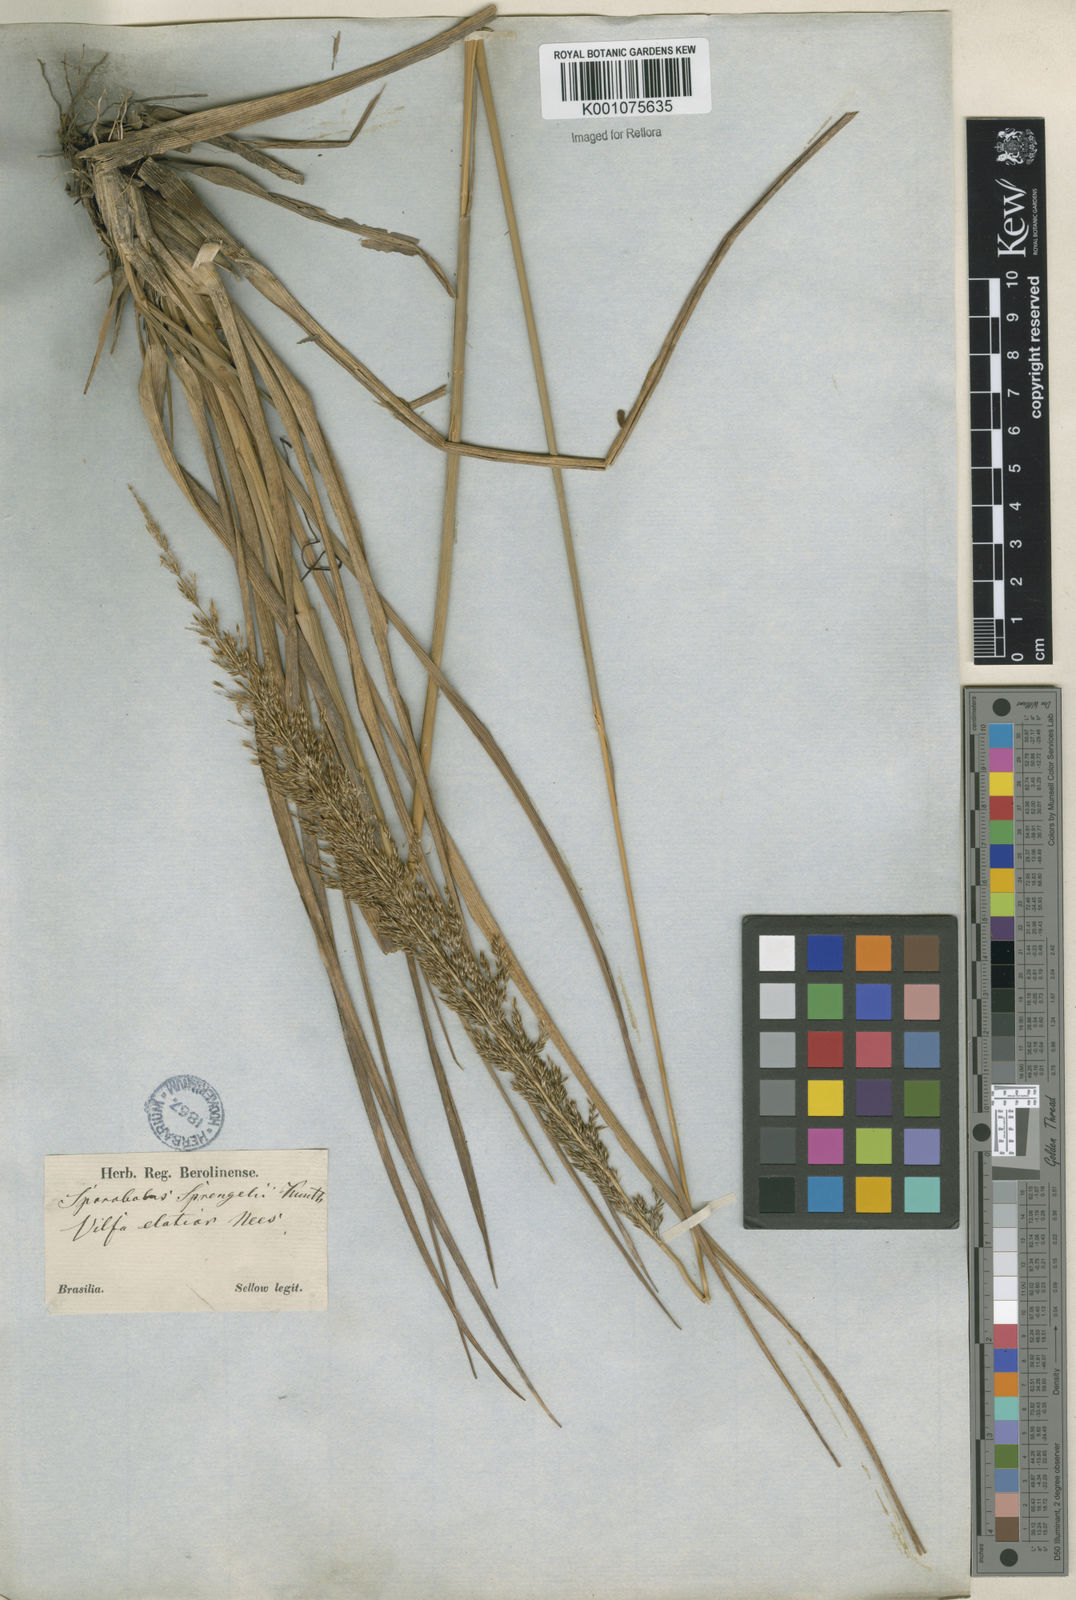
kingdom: Plantae
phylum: Tracheophyta
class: Liliopsida
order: Poales
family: Poaceae
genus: Sporobolus
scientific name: Sporobolus aeneus
